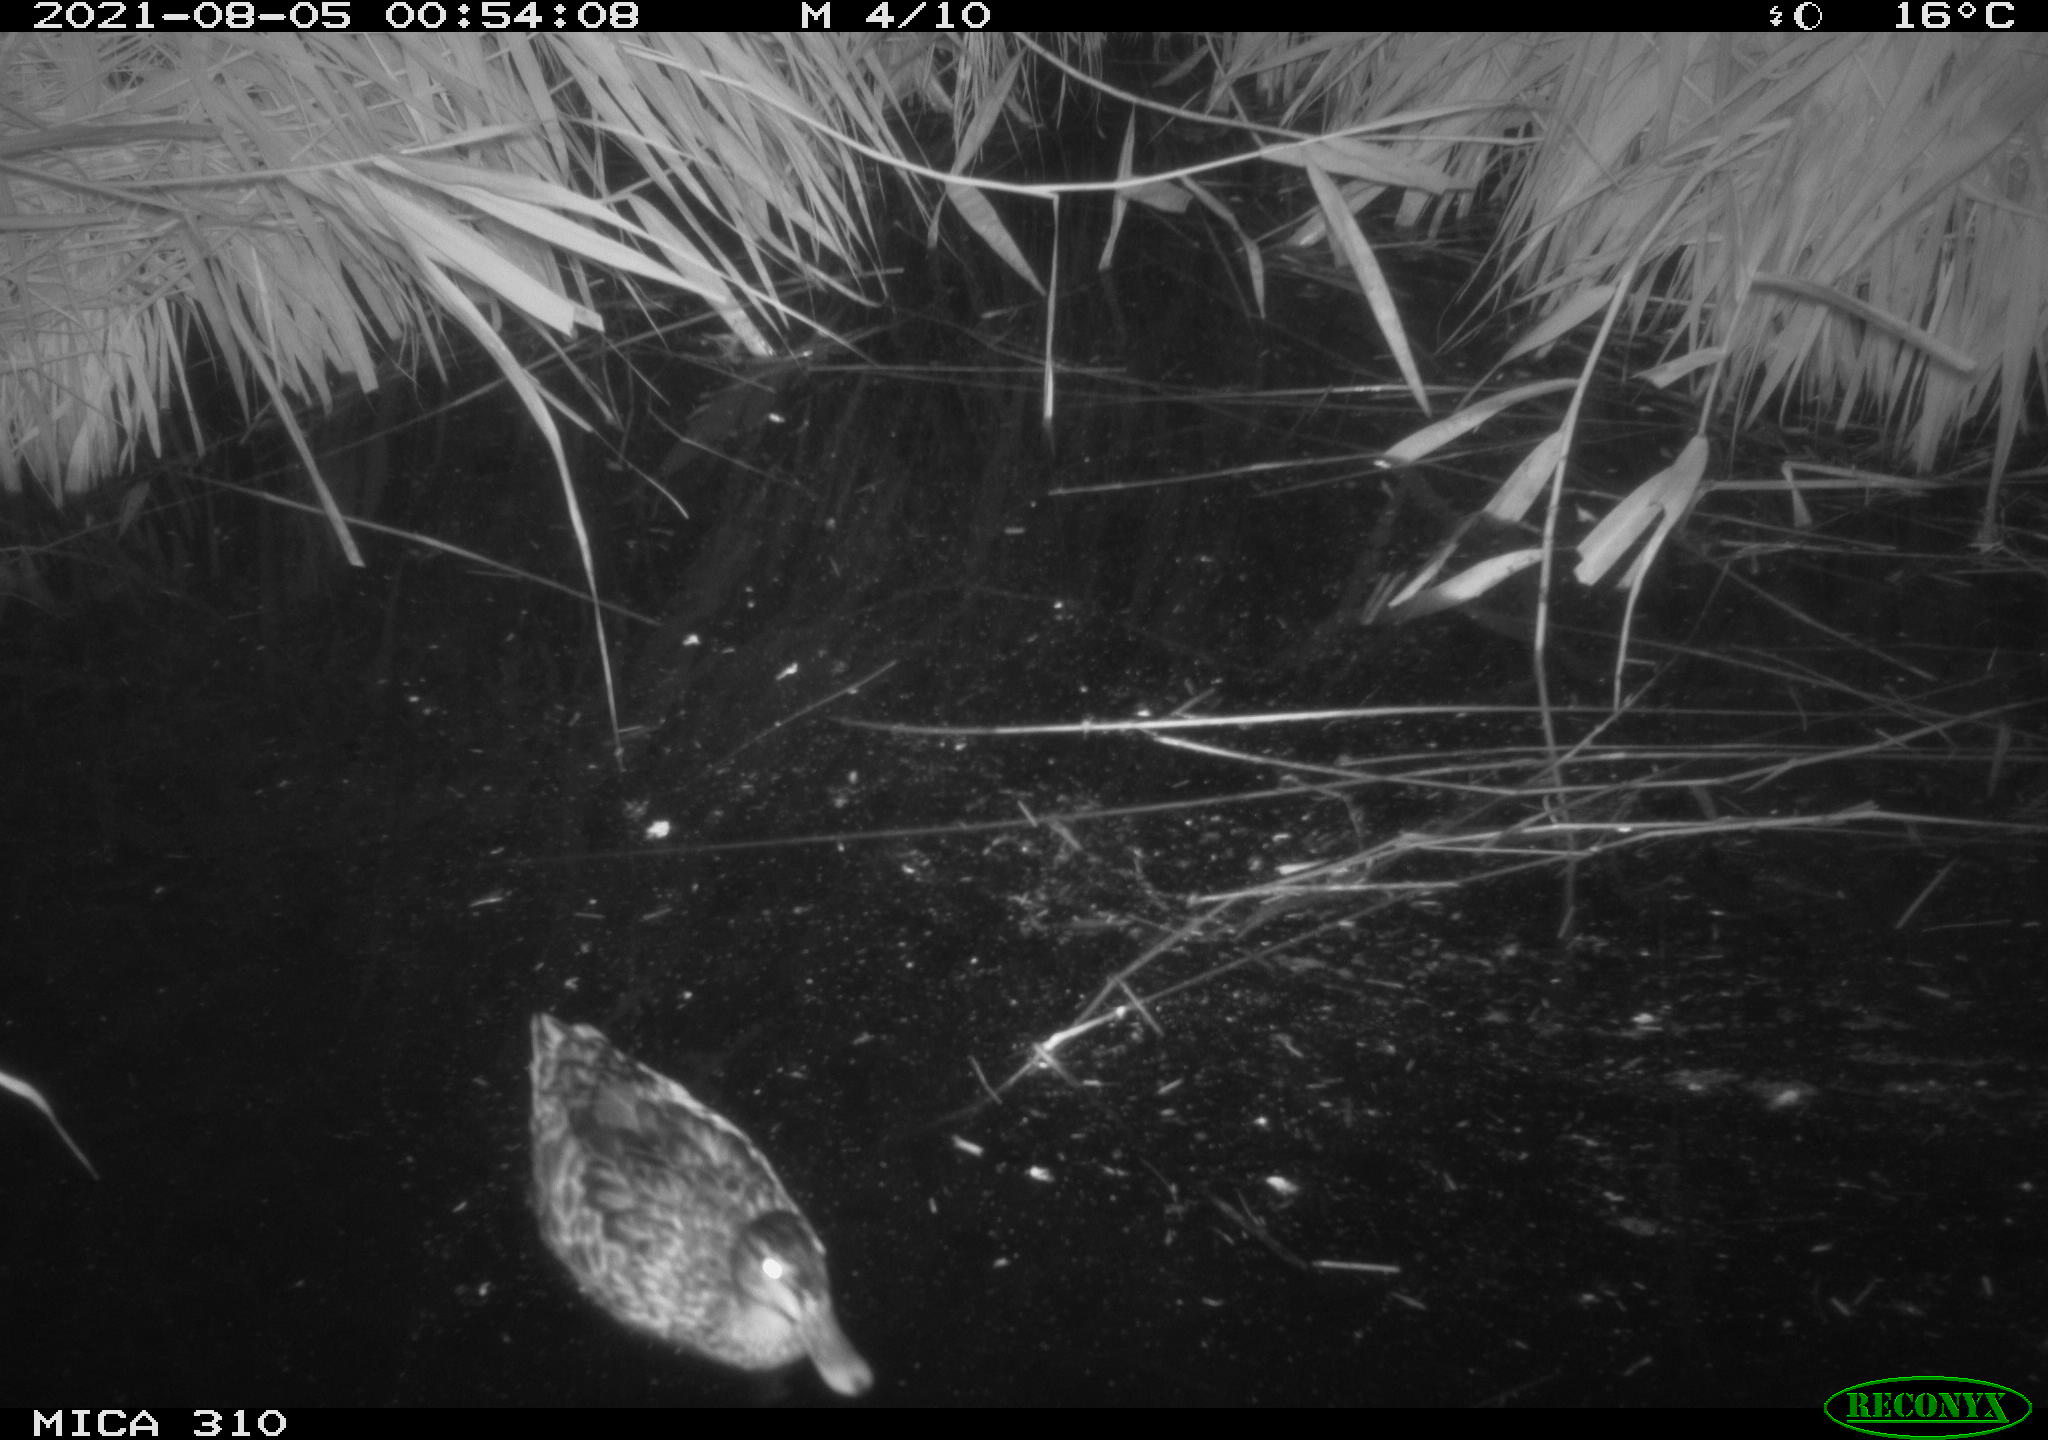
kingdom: Animalia
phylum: Chordata
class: Aves
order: Anseriformes
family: Anatidae
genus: Anas
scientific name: Anas platyrhynchos
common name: Mallard
